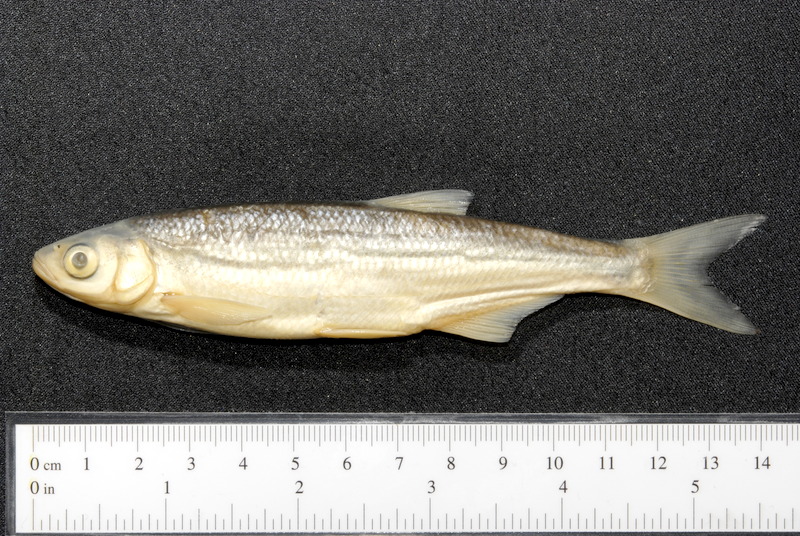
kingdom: Animalia
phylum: Chordata
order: Cypriniformes
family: Cyprinidae
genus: Alburnus
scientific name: Alburnus mento
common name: Seelaube
